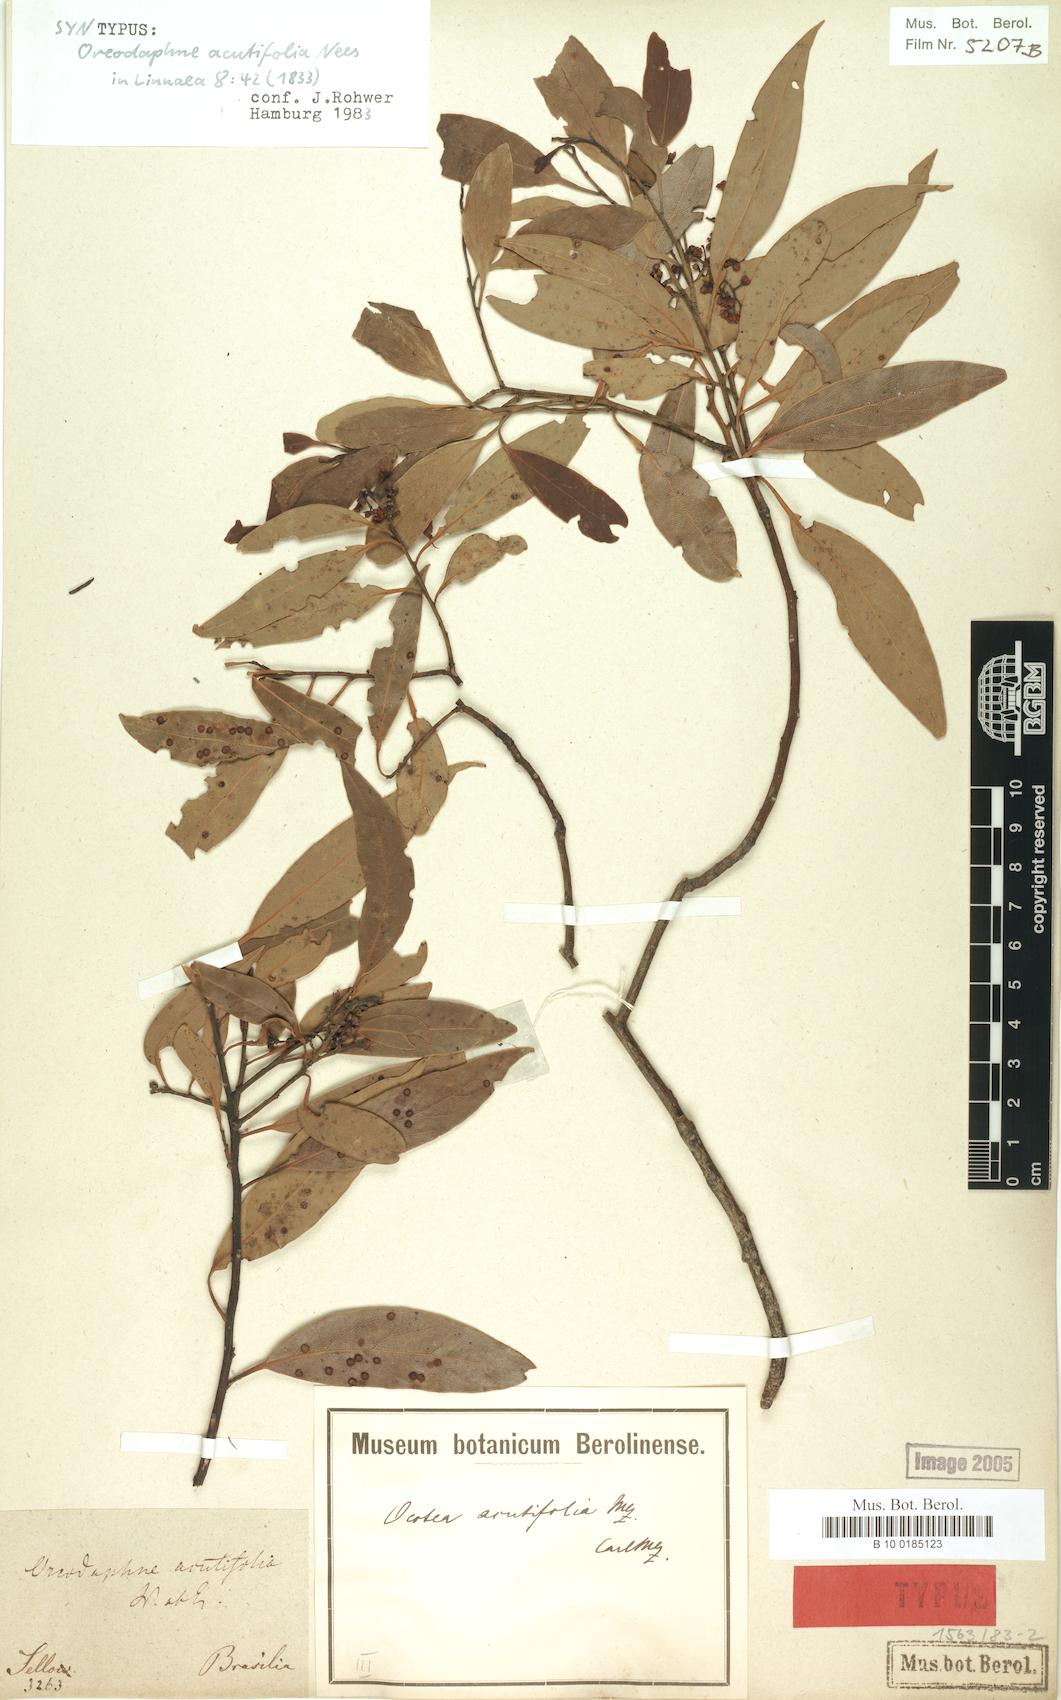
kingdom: Plantae
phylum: Tracheophyta
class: Magnoliopsida
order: Laurales
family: Lauraceae
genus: Ocotea
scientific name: Ocotea acutifolia
